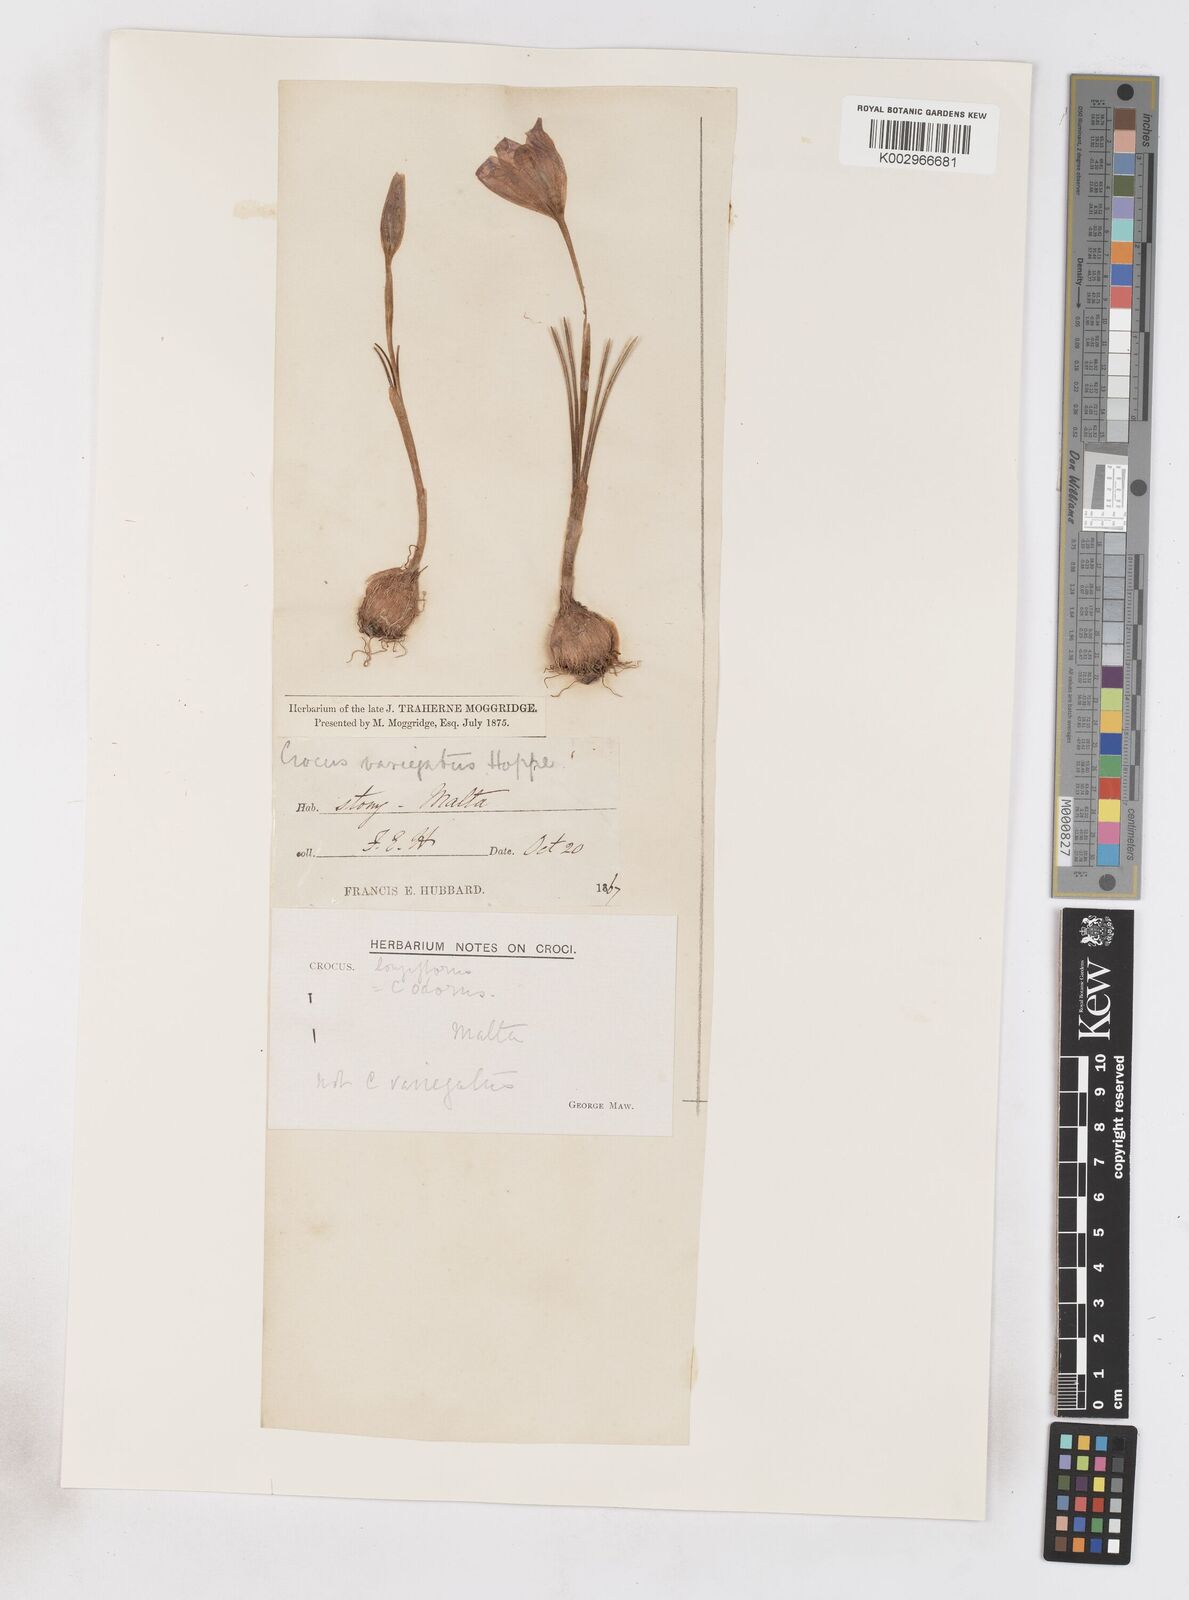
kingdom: Plantae
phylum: Tracheophyta
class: Liliopsida
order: Asparagales
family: Iridaceae
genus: Crocus
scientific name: Crocus longiflorus
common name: Italian crocus
